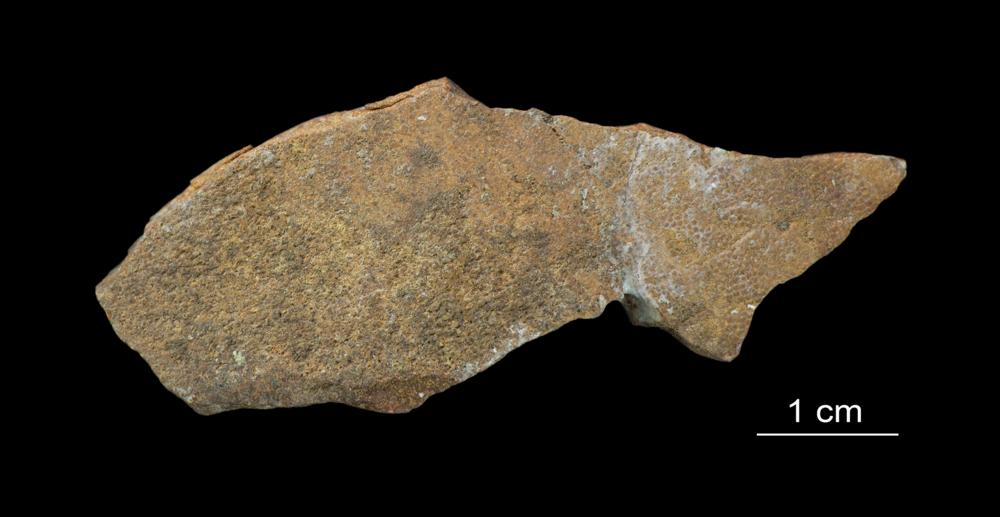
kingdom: Animalia
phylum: Chordata
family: Asterolepididae
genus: Asterolepis
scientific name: Asterolepis ornata
